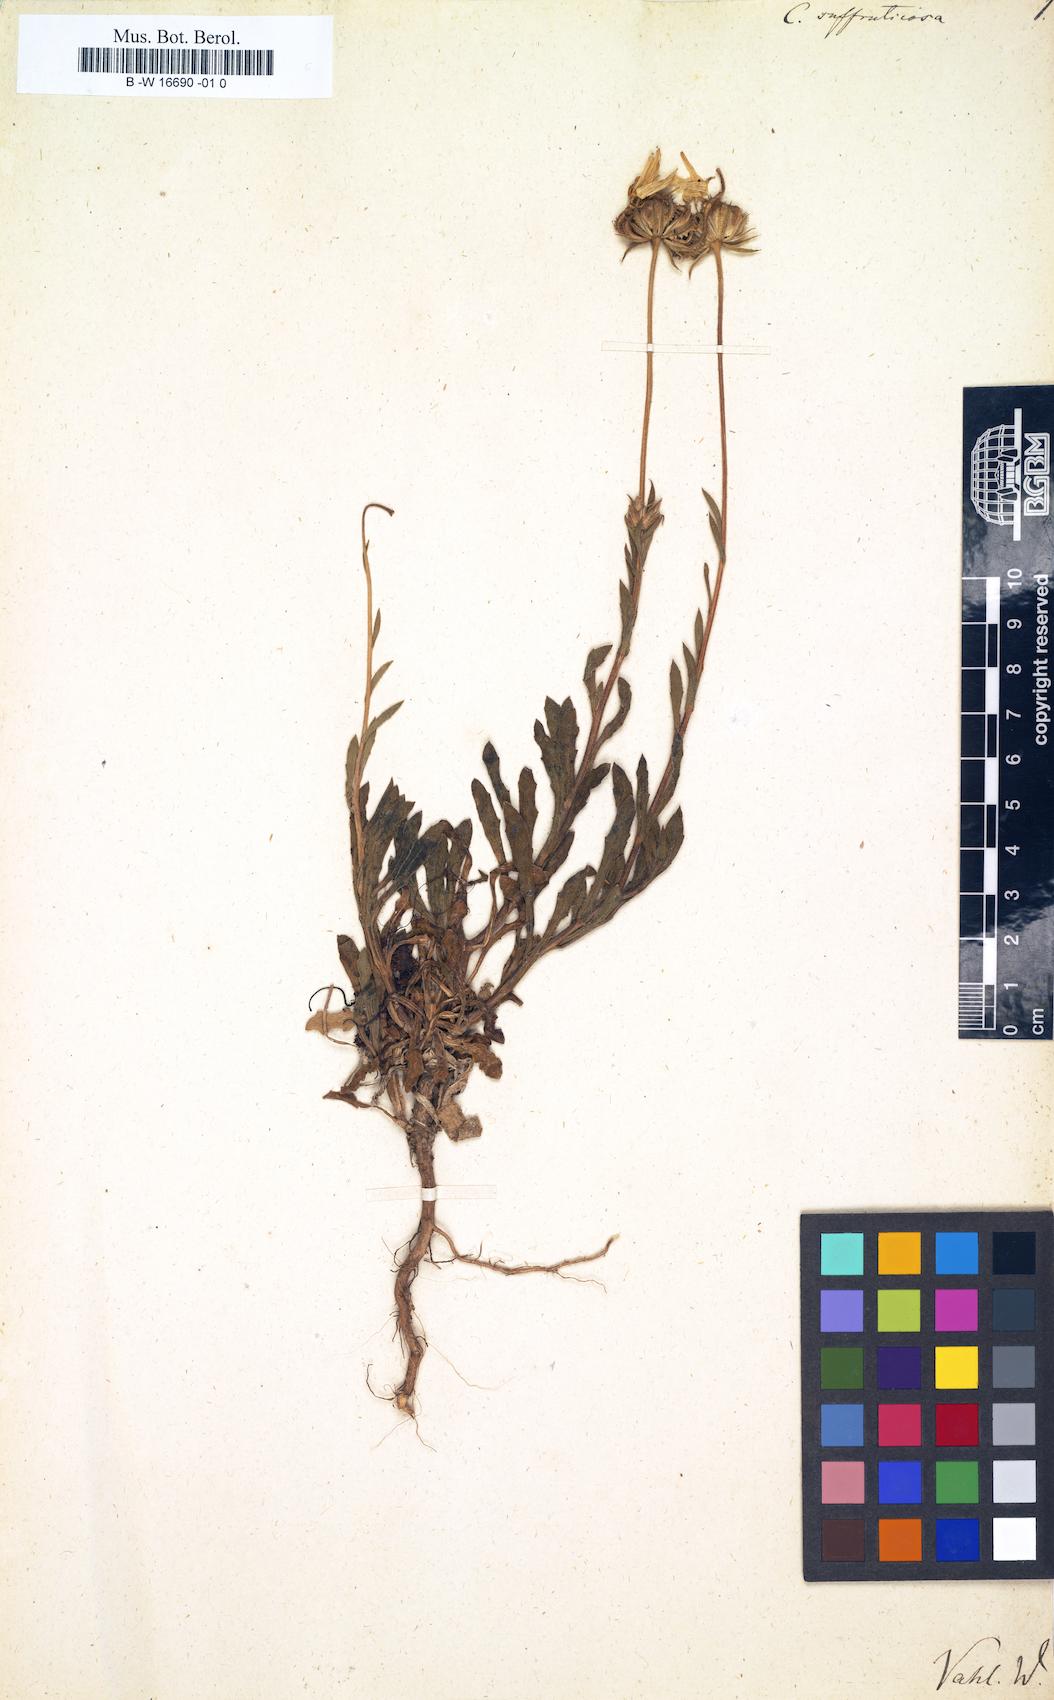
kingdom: Plantae
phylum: Tracheophyta
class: Magnoliopsida
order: Asterales
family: Asteraceae
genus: Calendula
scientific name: Calendula suffruticosa
